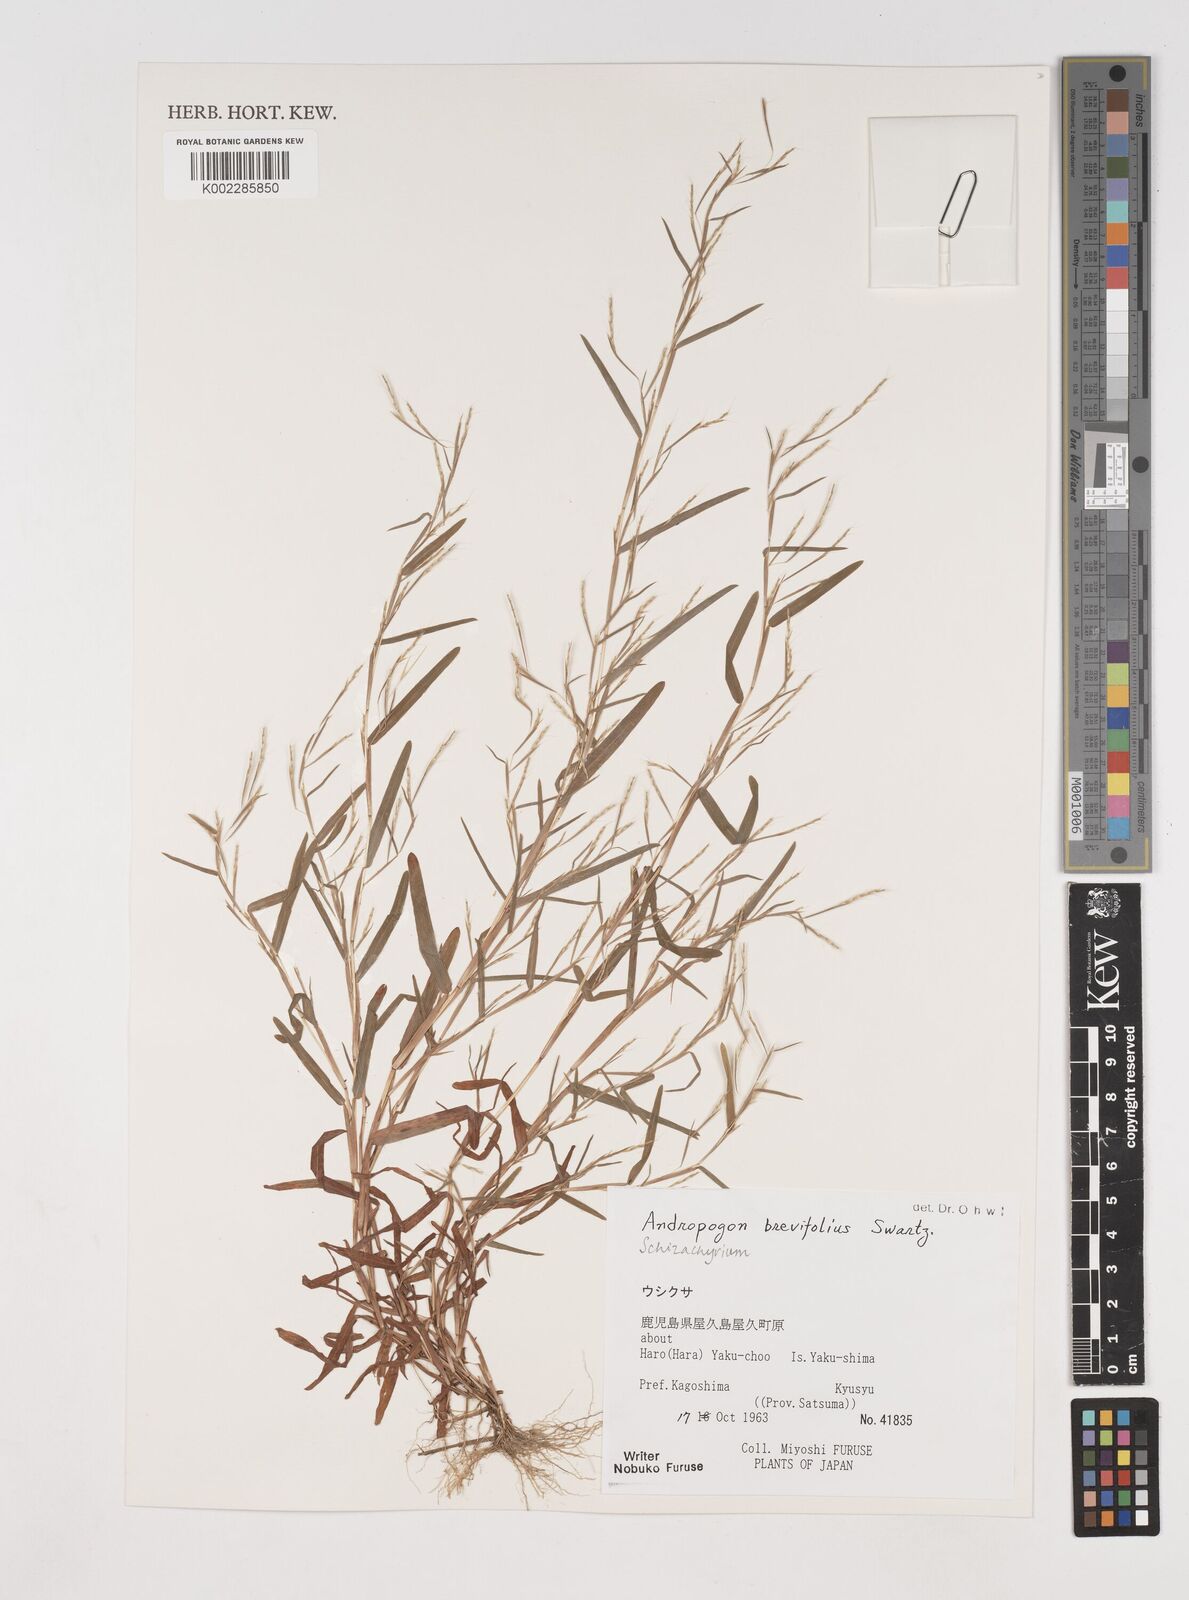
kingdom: Plantae
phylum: Tracheophyta
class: Liliopsida
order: Poales
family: Poaceae
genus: Schizachyrium
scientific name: Schizachyrium brevifolium
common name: Serillo dulce
